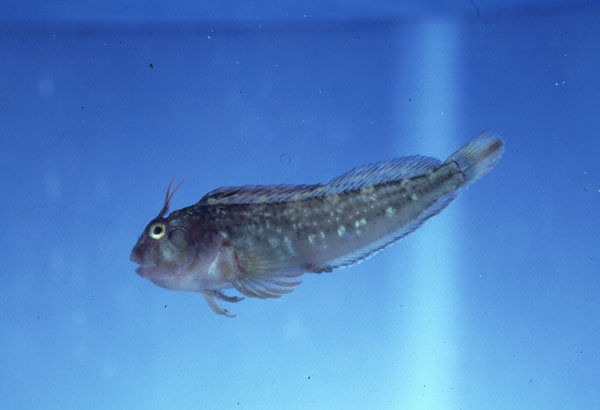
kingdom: Animalia
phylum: Chordata
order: Perciformes
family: Blenniidae
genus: Parablennius
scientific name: Parablennius cornutus
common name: Horned blenny
